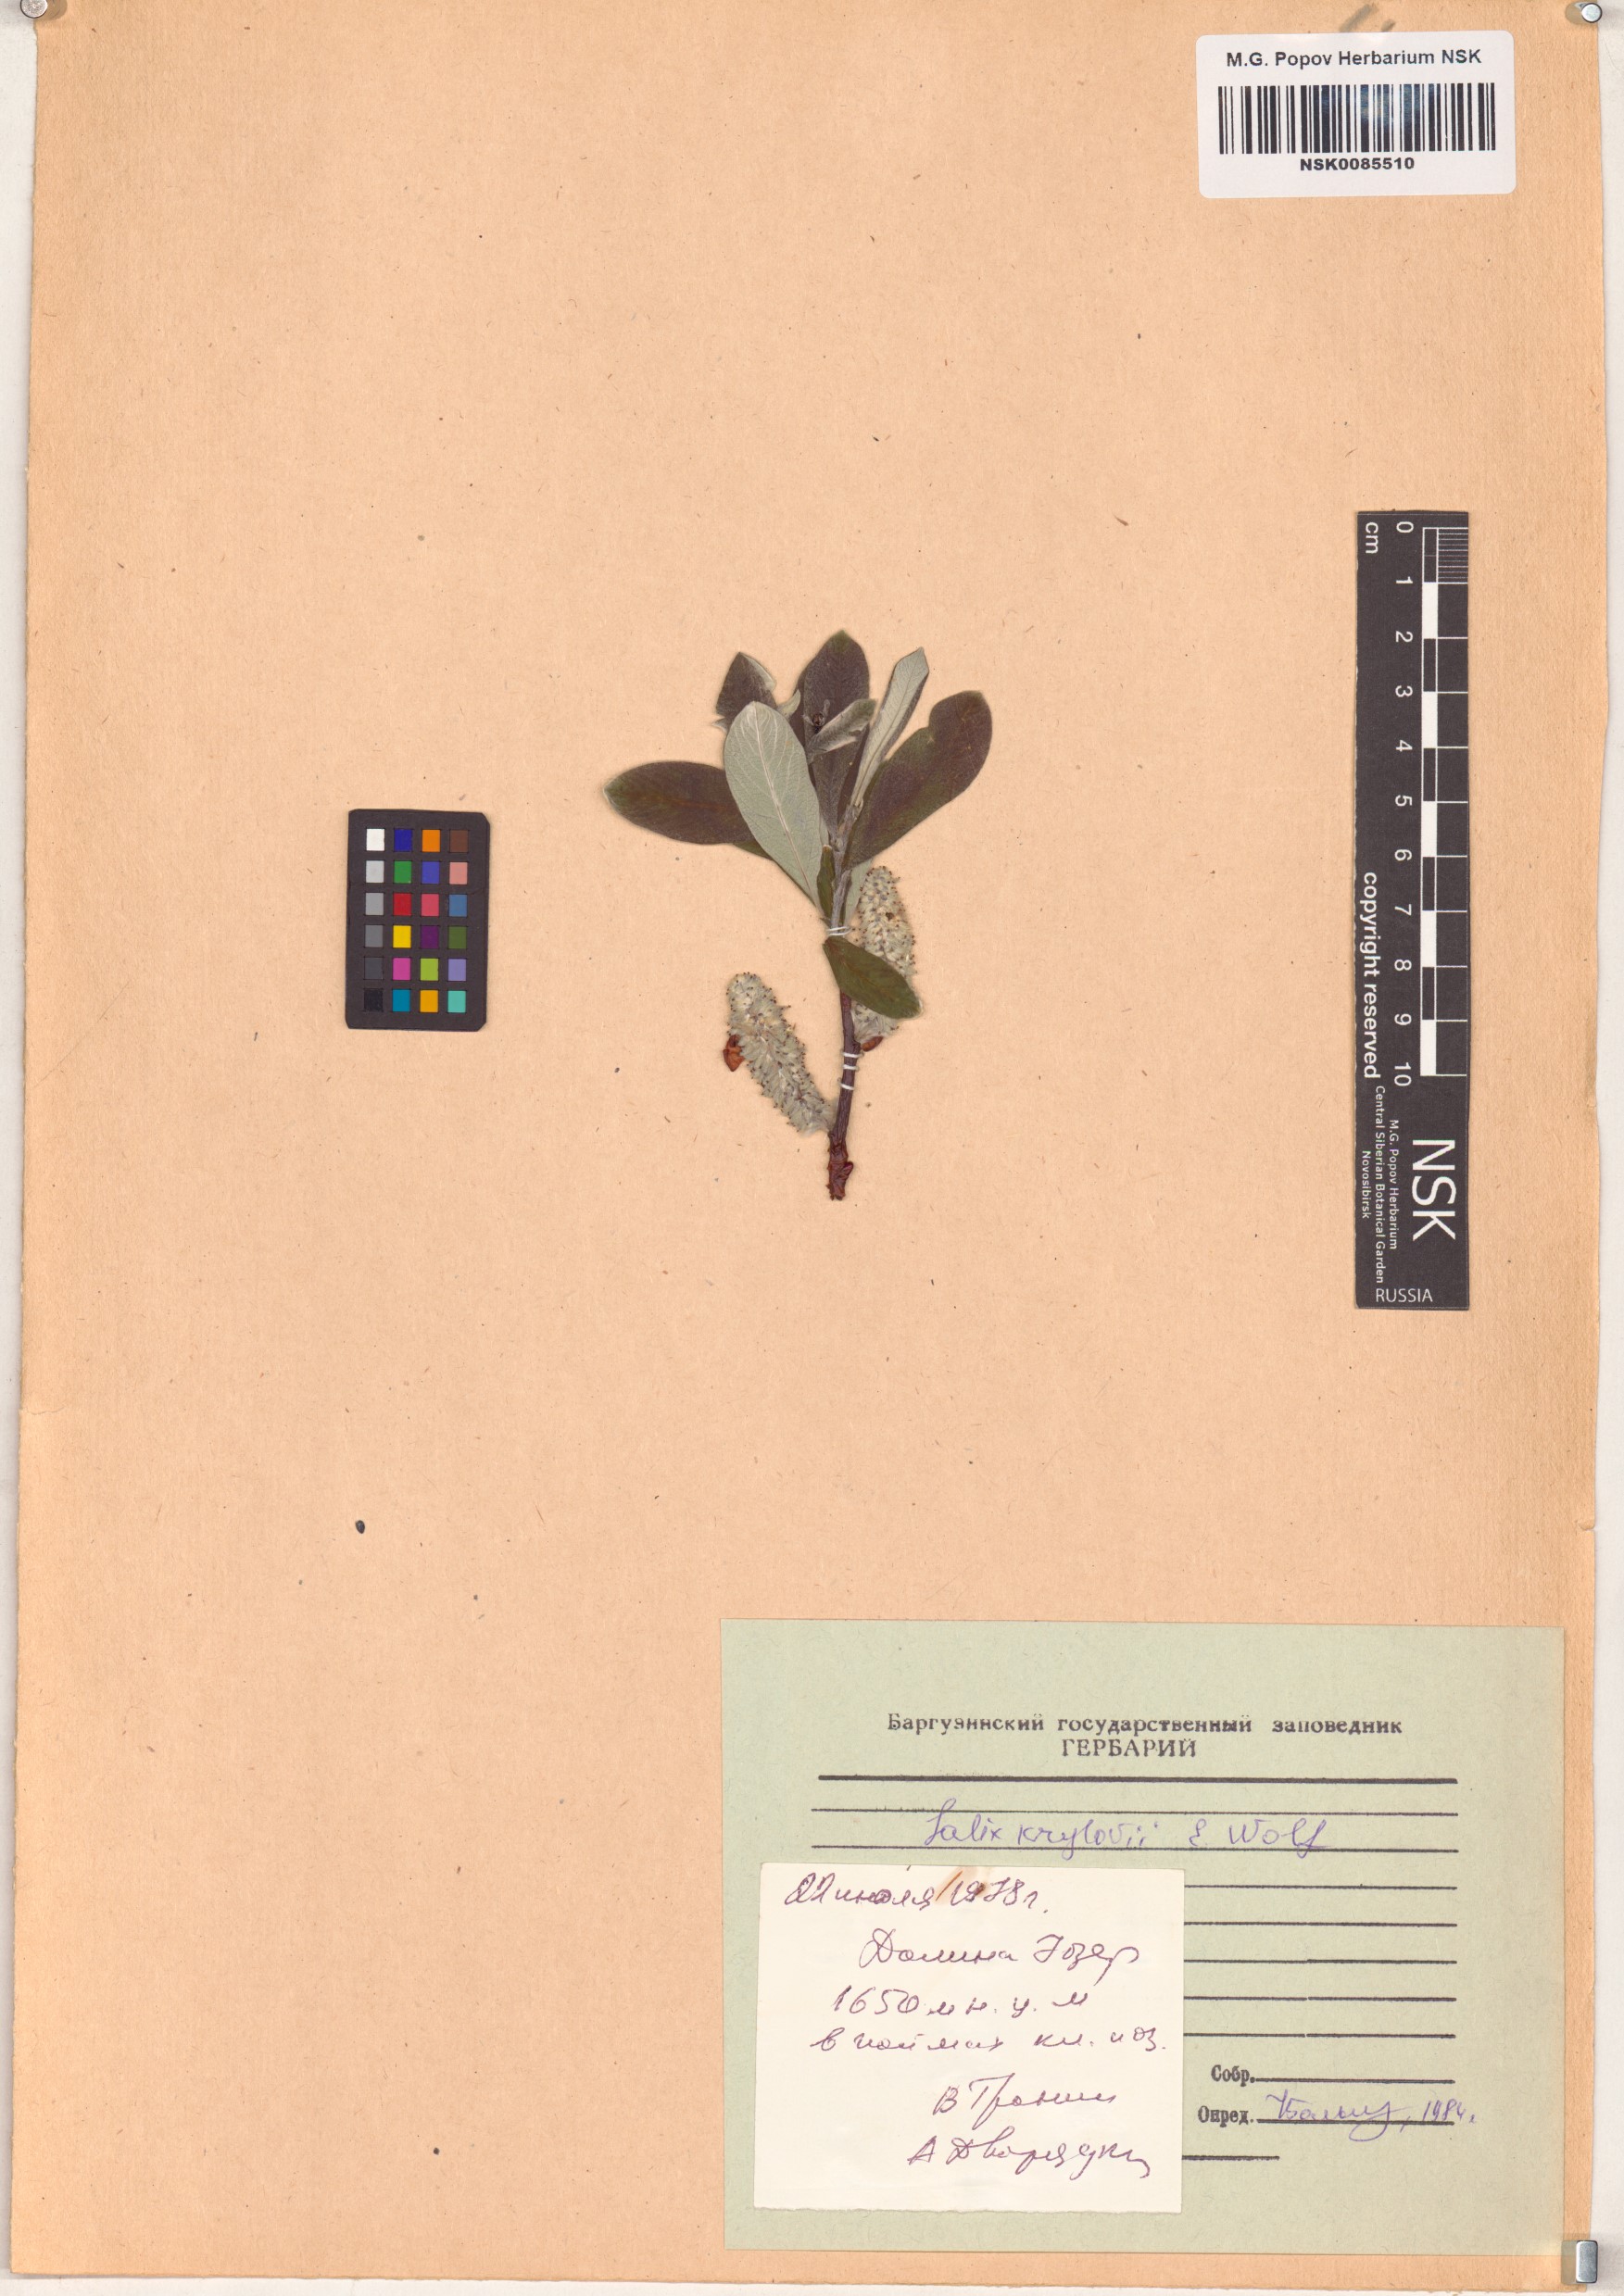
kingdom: Plantae
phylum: Tracheophyta
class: Magnoliopsida
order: Malpighiales
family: Salicaceae
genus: Salix
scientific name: Salix krylovii
